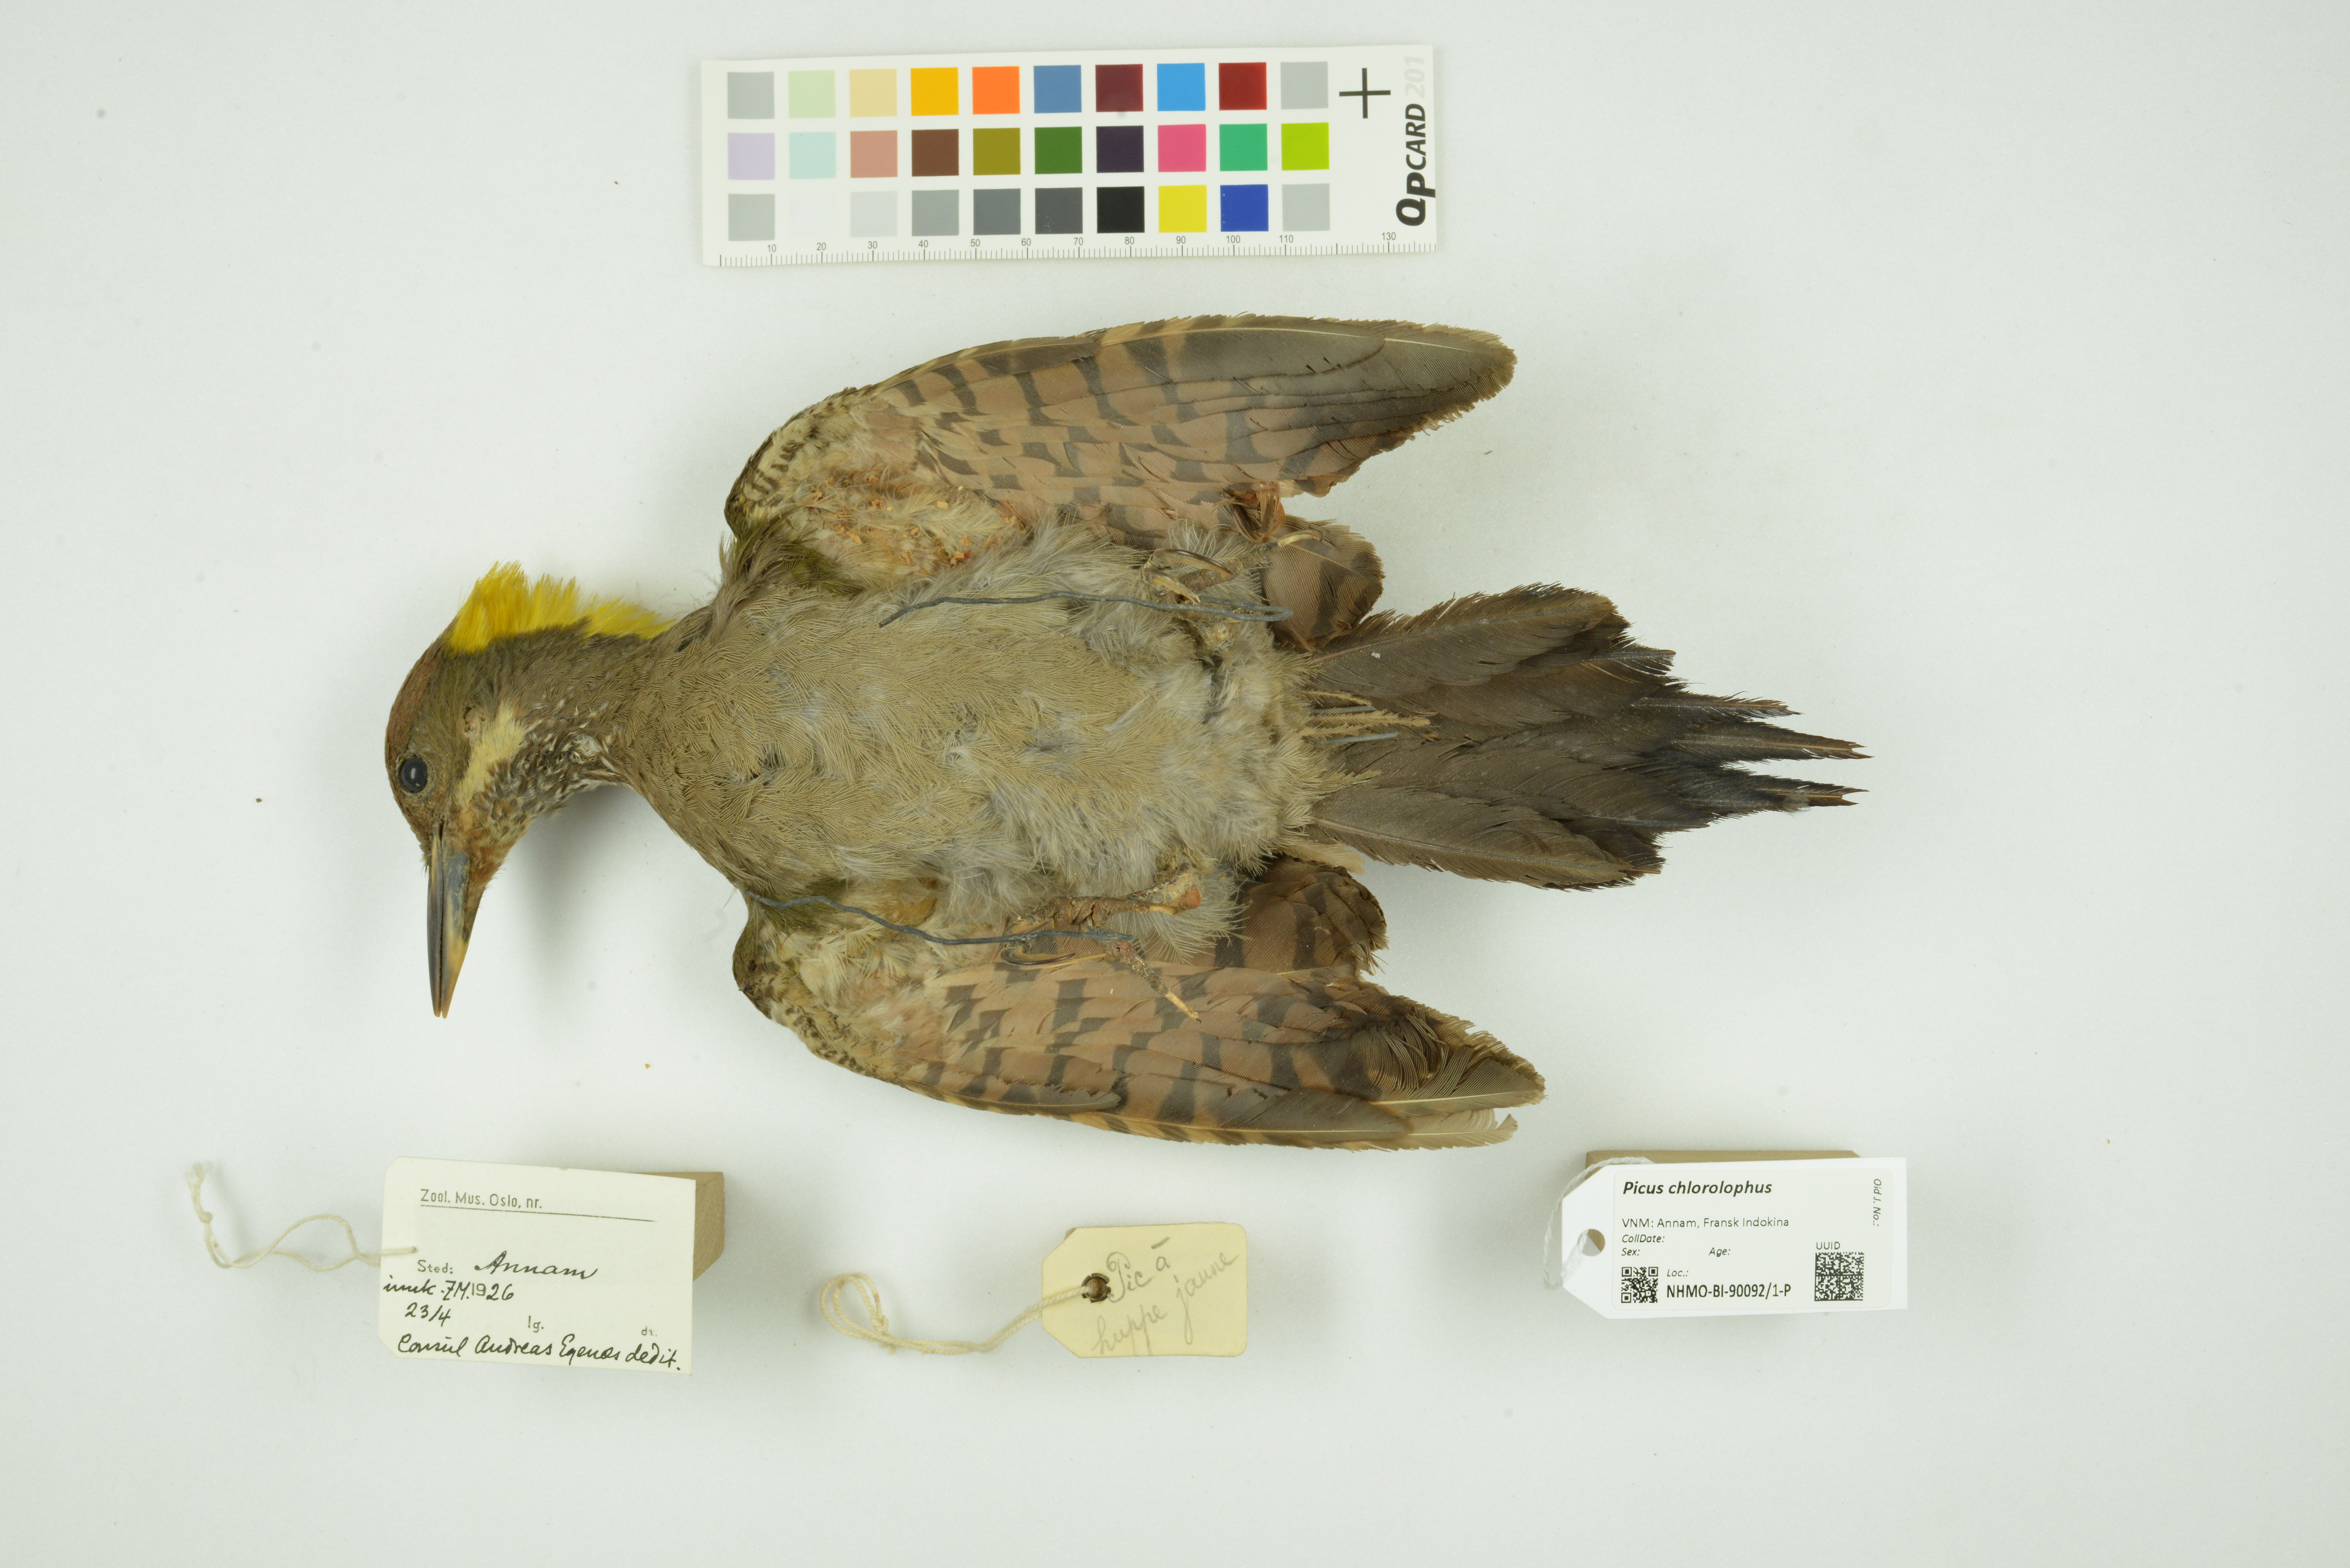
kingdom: Animalia
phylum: Chordata
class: Aves
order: Piciformes
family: Picidae
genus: Picus
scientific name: Picus chlorolophus
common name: Lesser yellownape
